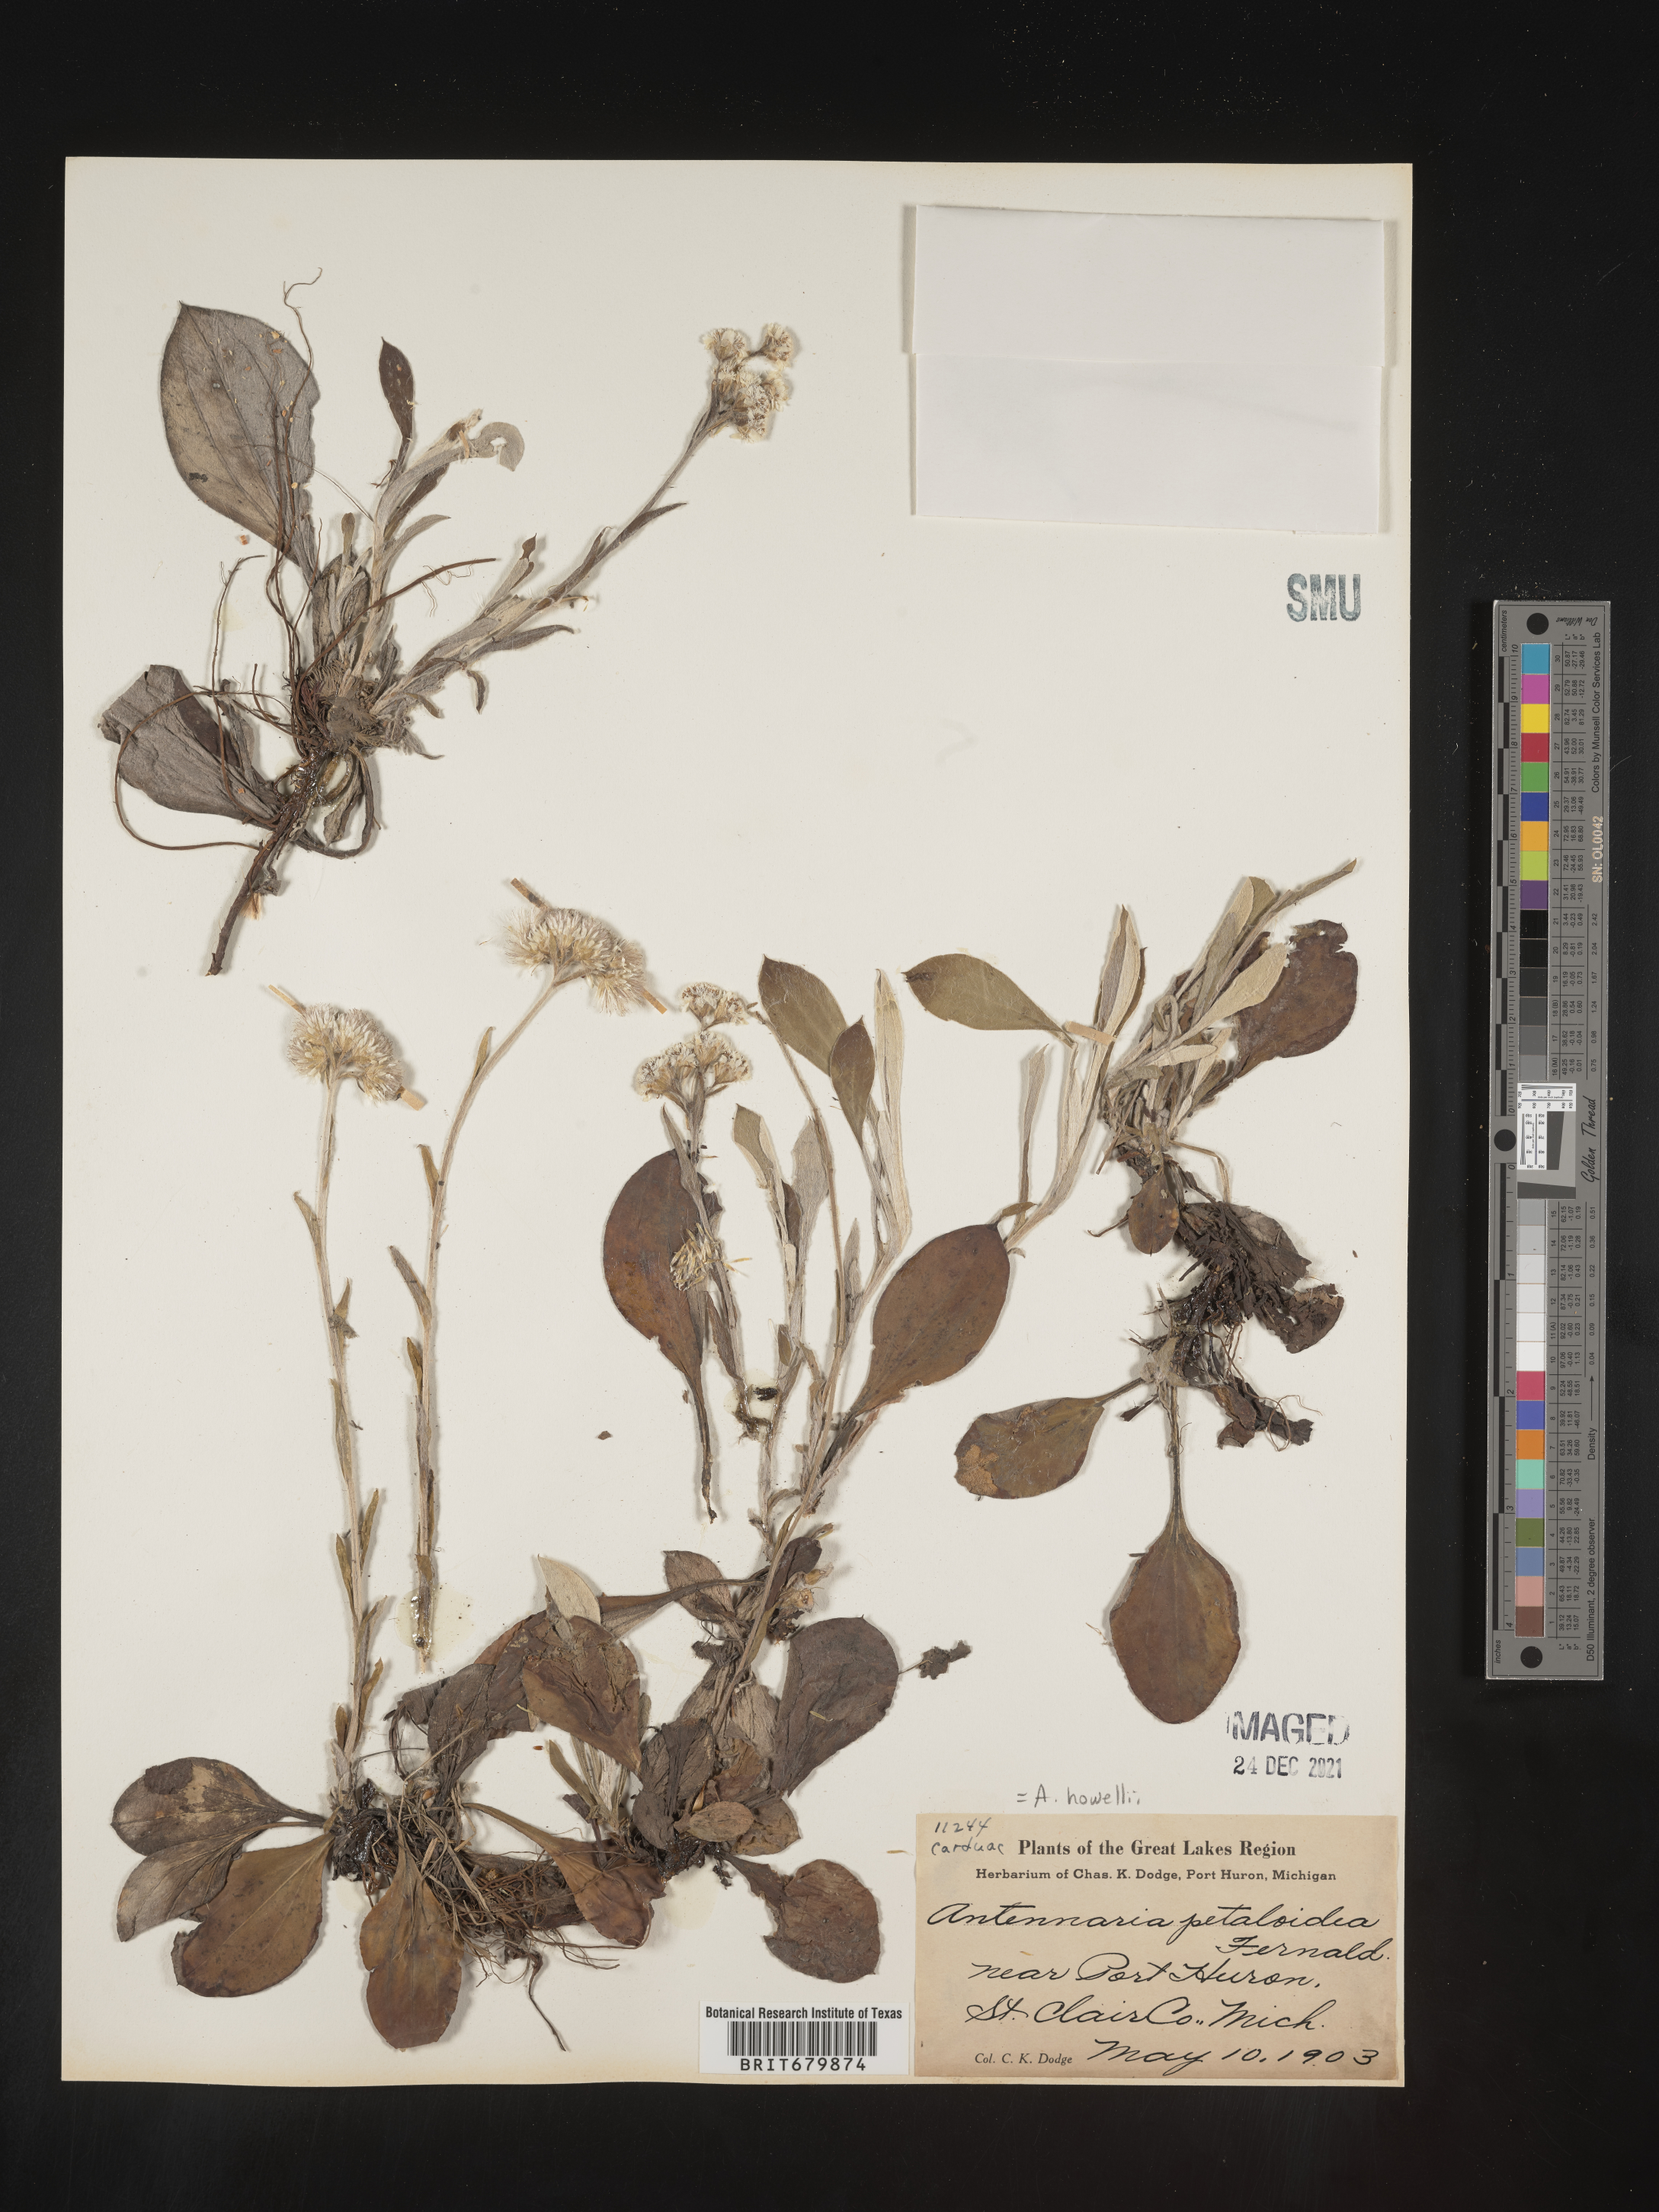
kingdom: Plantae
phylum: Tracheophyta
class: Magnoliopsida
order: Asterales
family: Asteraceae
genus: Antennaria
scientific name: Antennaria howellii
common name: Howell's pussytoes
